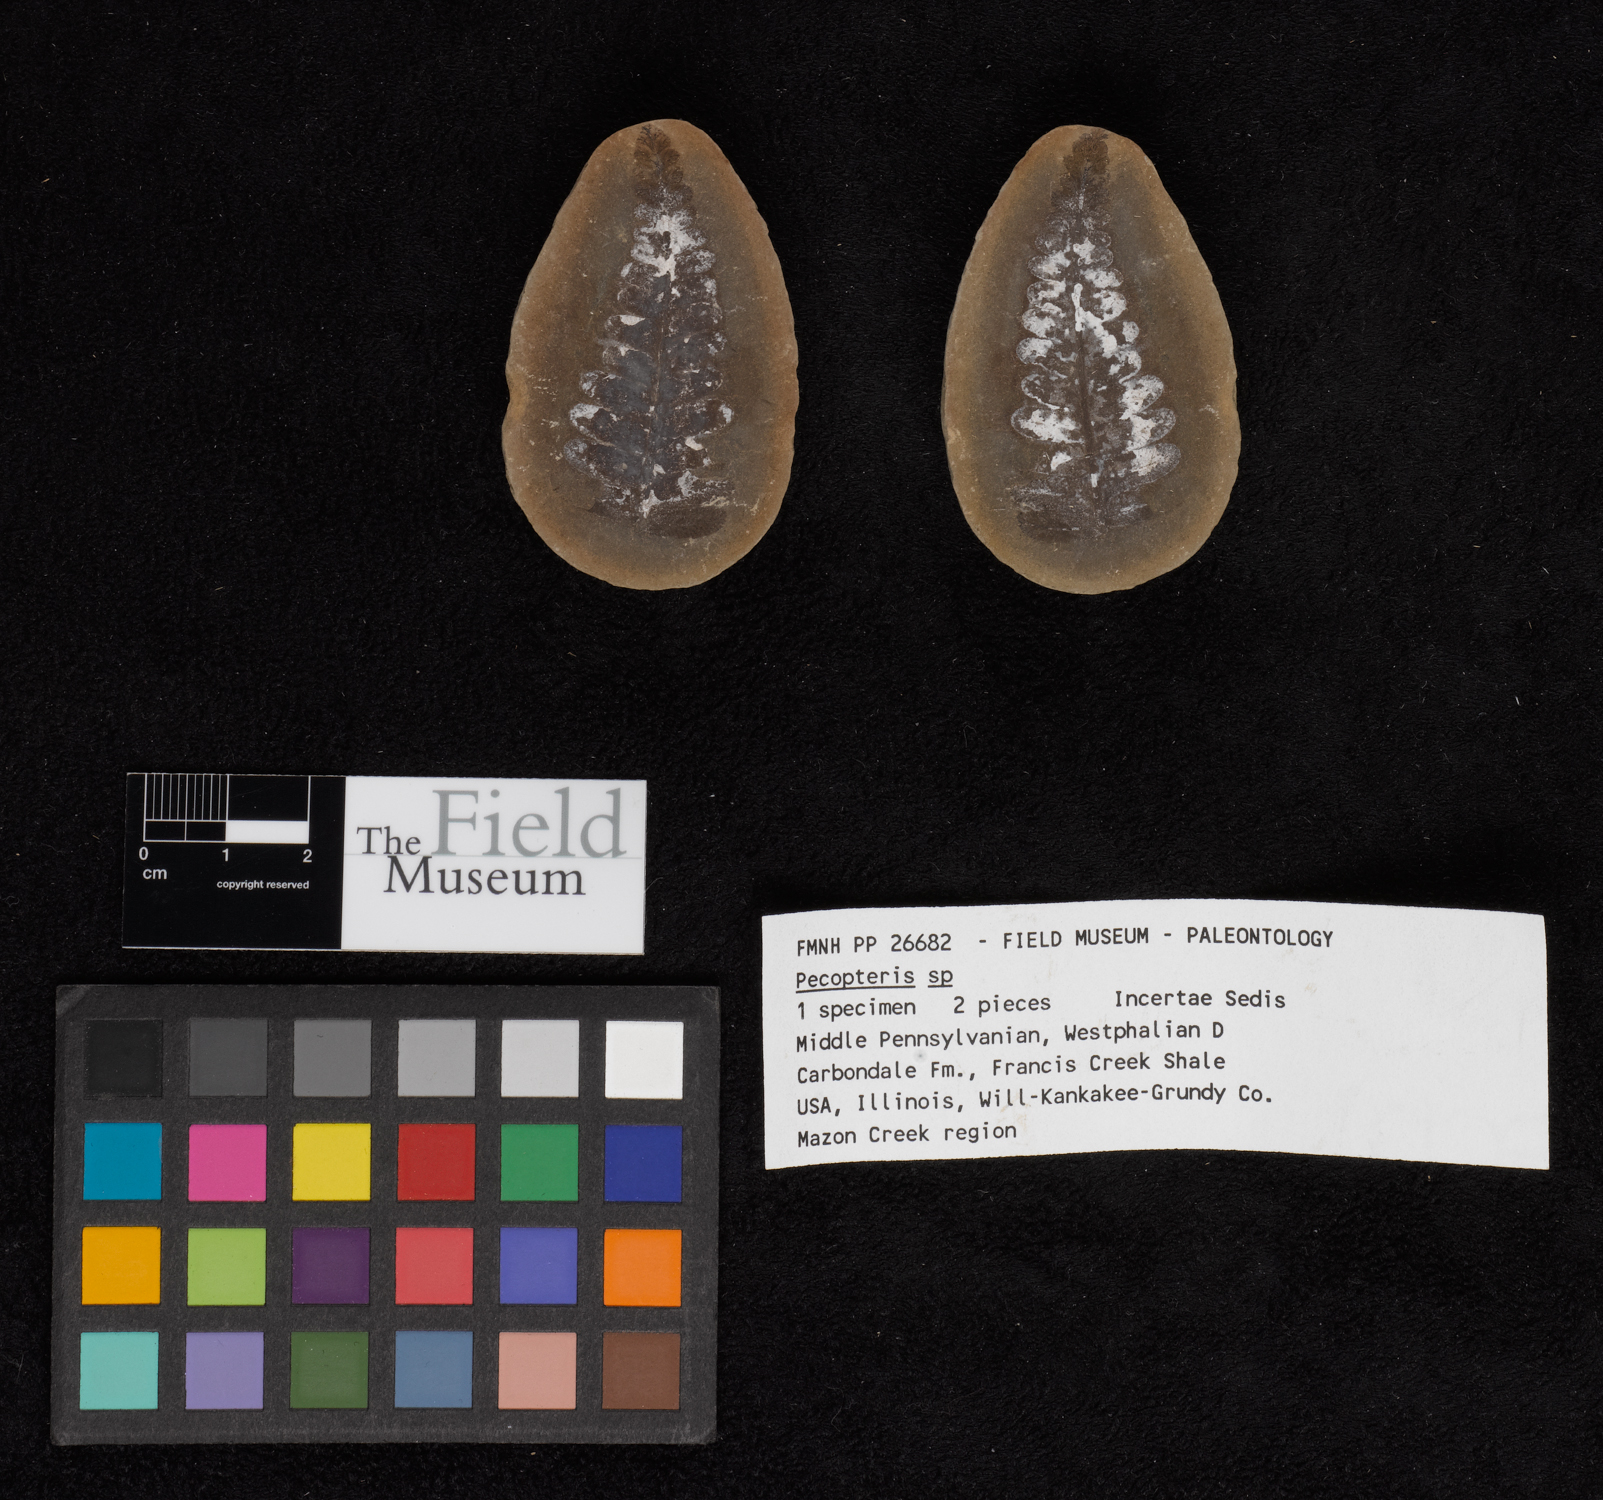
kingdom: Plantae
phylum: Tracheophyta
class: Polypodiopsida
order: Marattiales
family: Asterothecaceae
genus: Pecopteris
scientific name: Pecopteris
